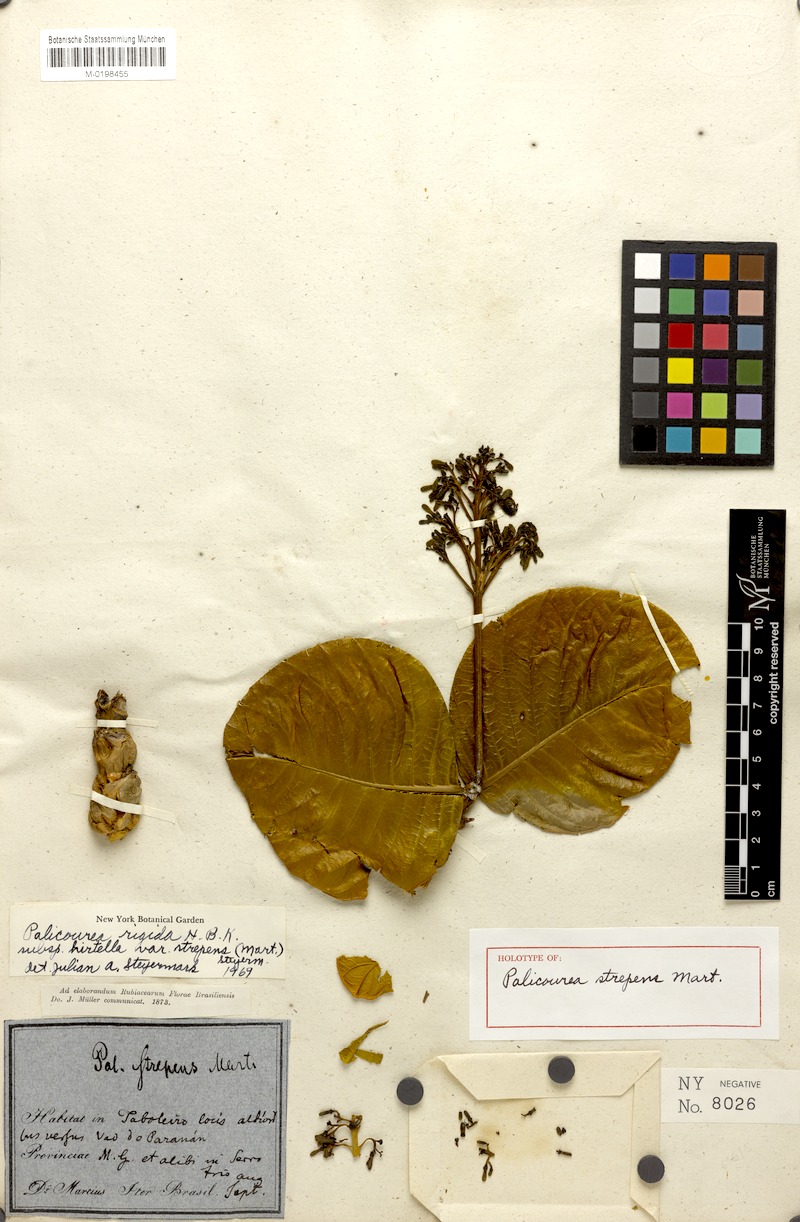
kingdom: Plantae
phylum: Tracheophyta
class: Magnoliopsida
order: Gentianales
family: Rubiaceae
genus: Palicourea
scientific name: Palicourea rigida
